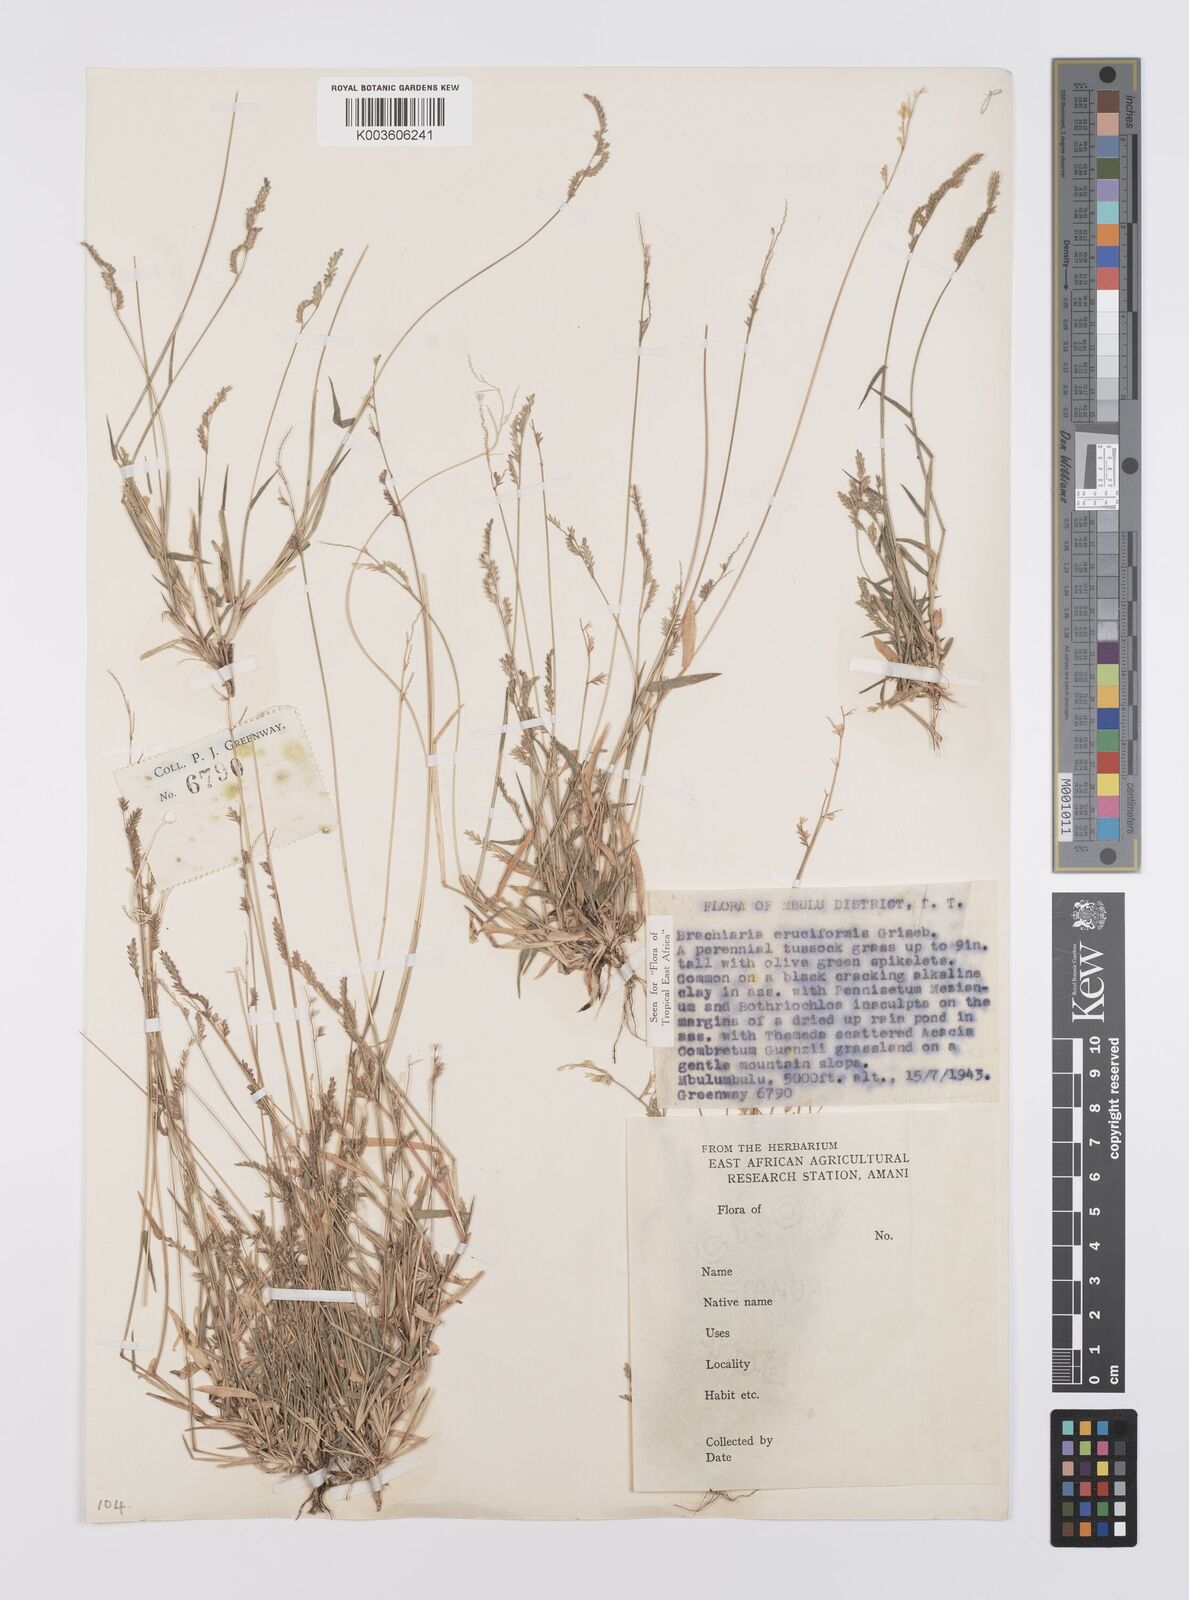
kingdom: Plantae
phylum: Tracheophyta
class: Liliopsida
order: Poales
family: Poaceae
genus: Moorochloa
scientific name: Moorochloa eruciformis
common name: Sweet signalgrass
